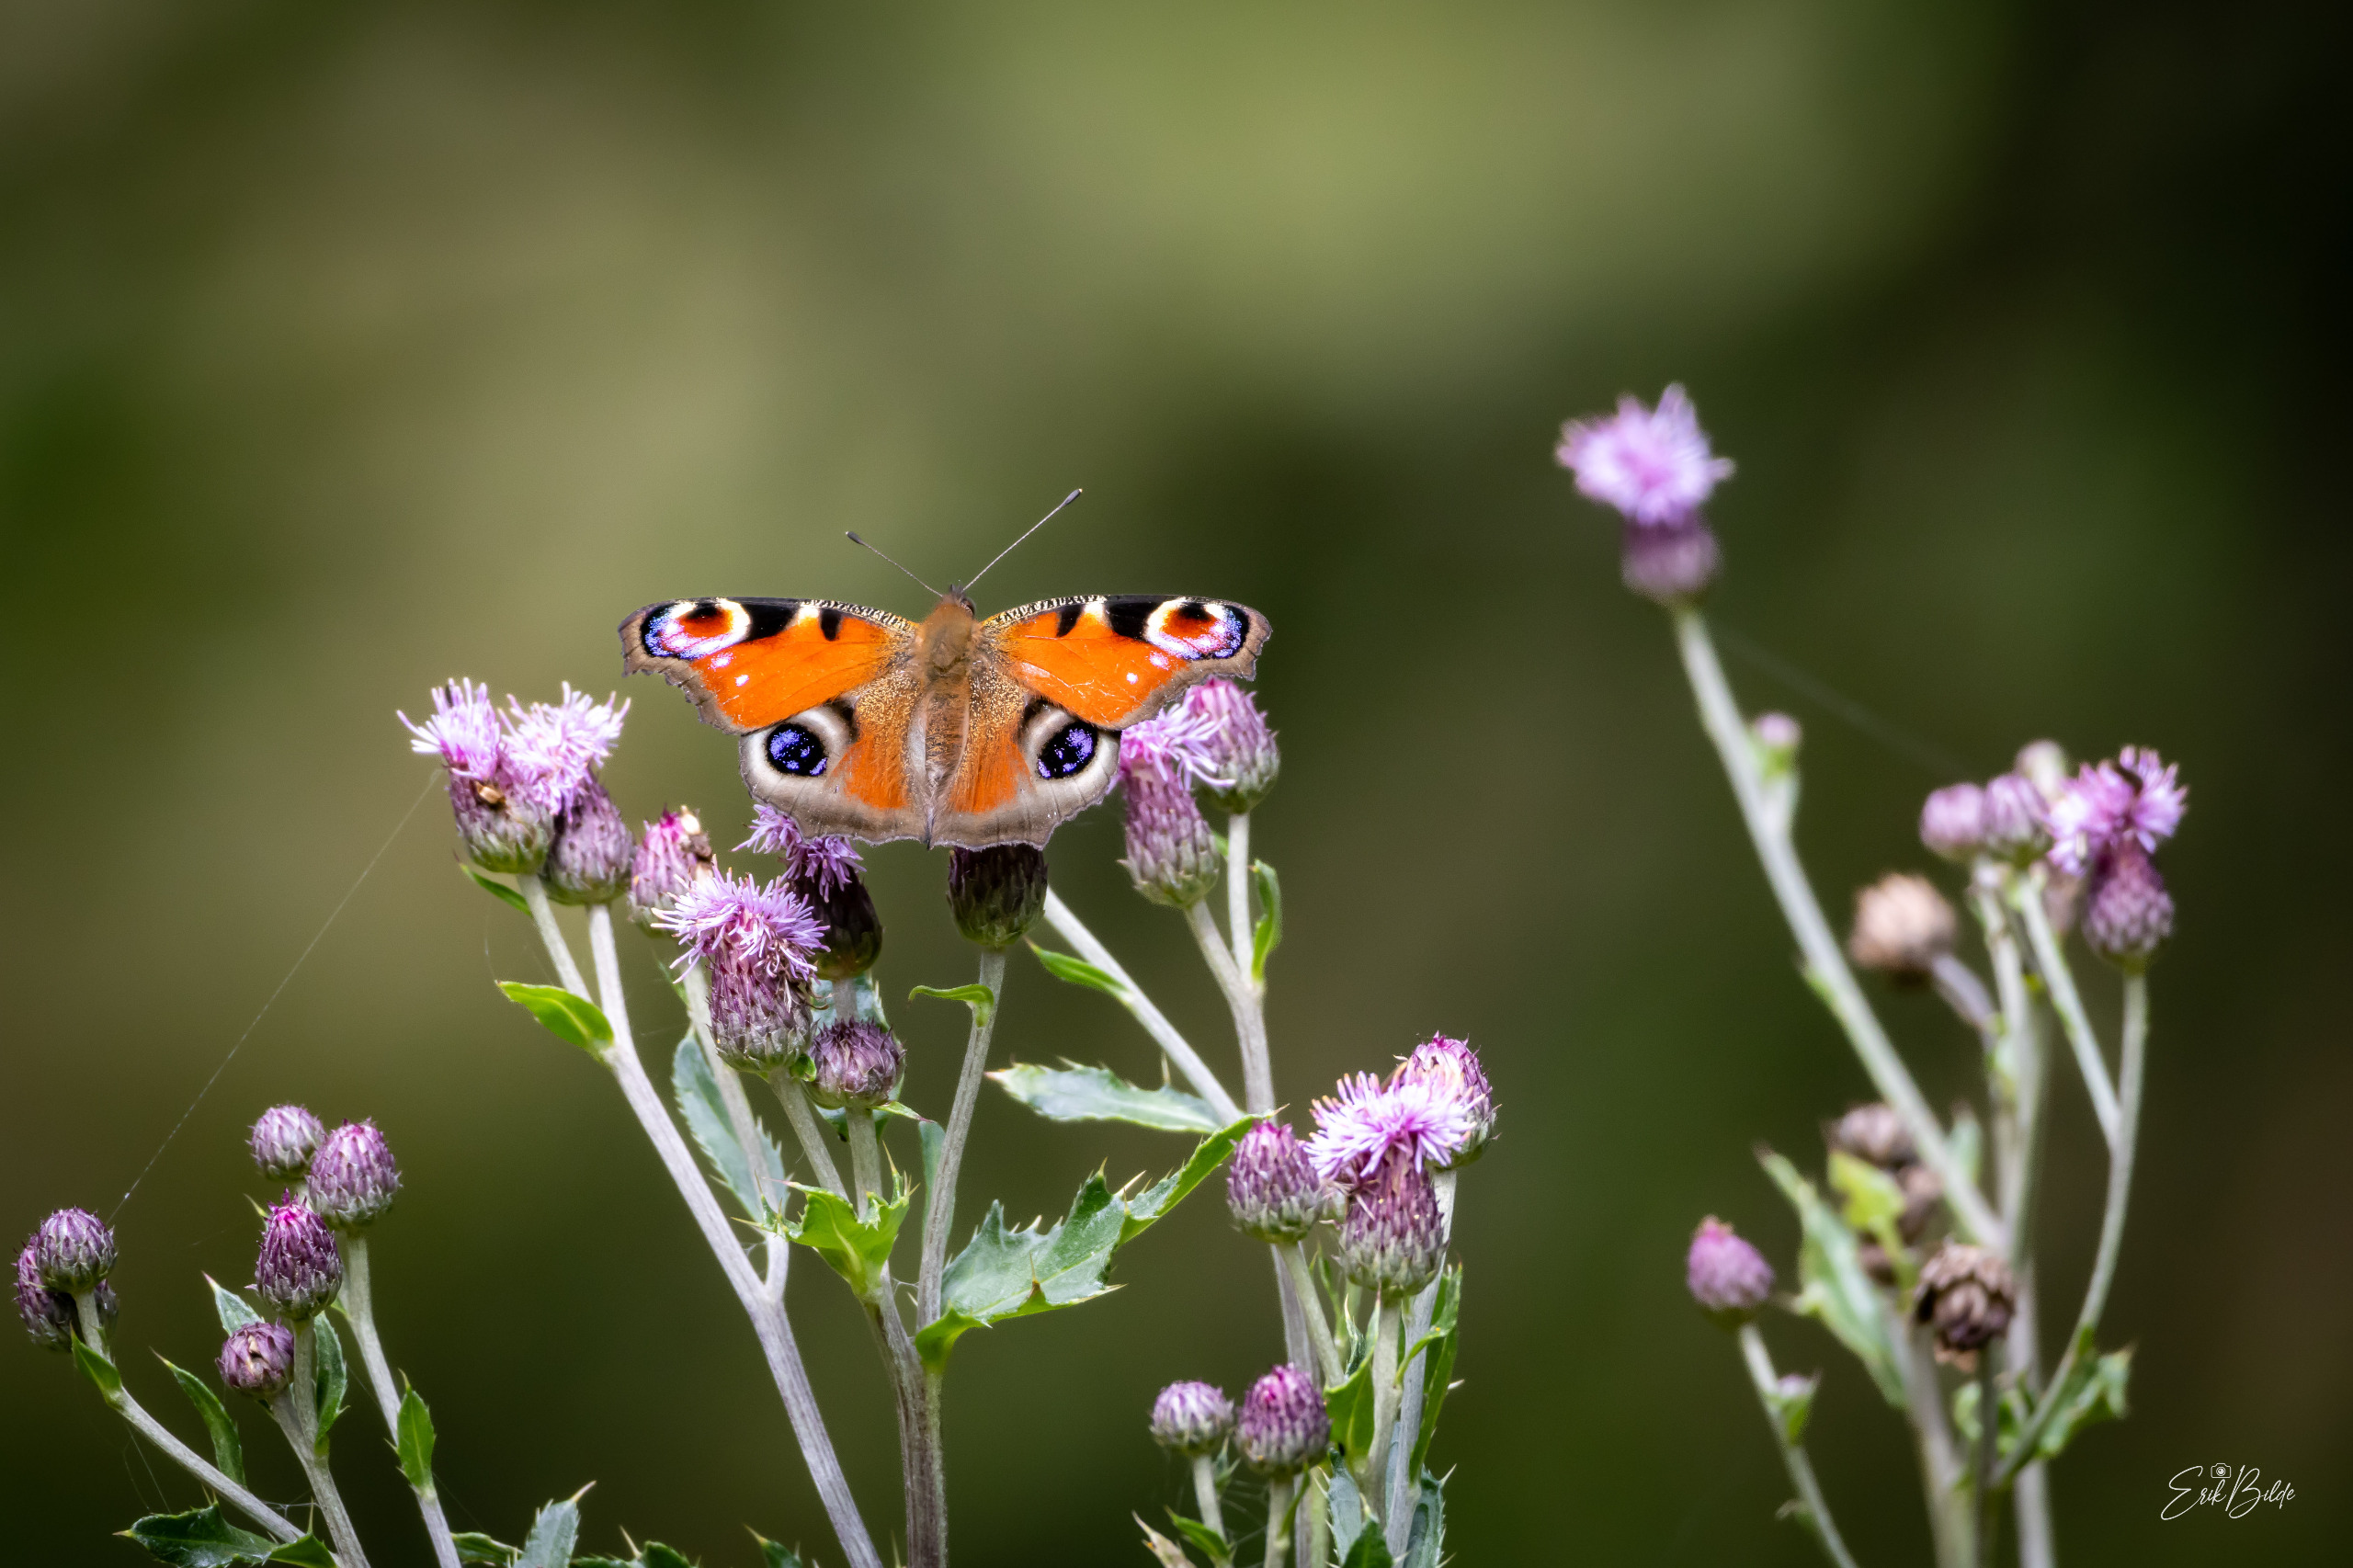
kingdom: Animalia
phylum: Arthropoda
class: Insecta
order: Lepidoptera
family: Nymphalidae
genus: Aglais
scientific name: Aglais io
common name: Dagpåfugleøje
